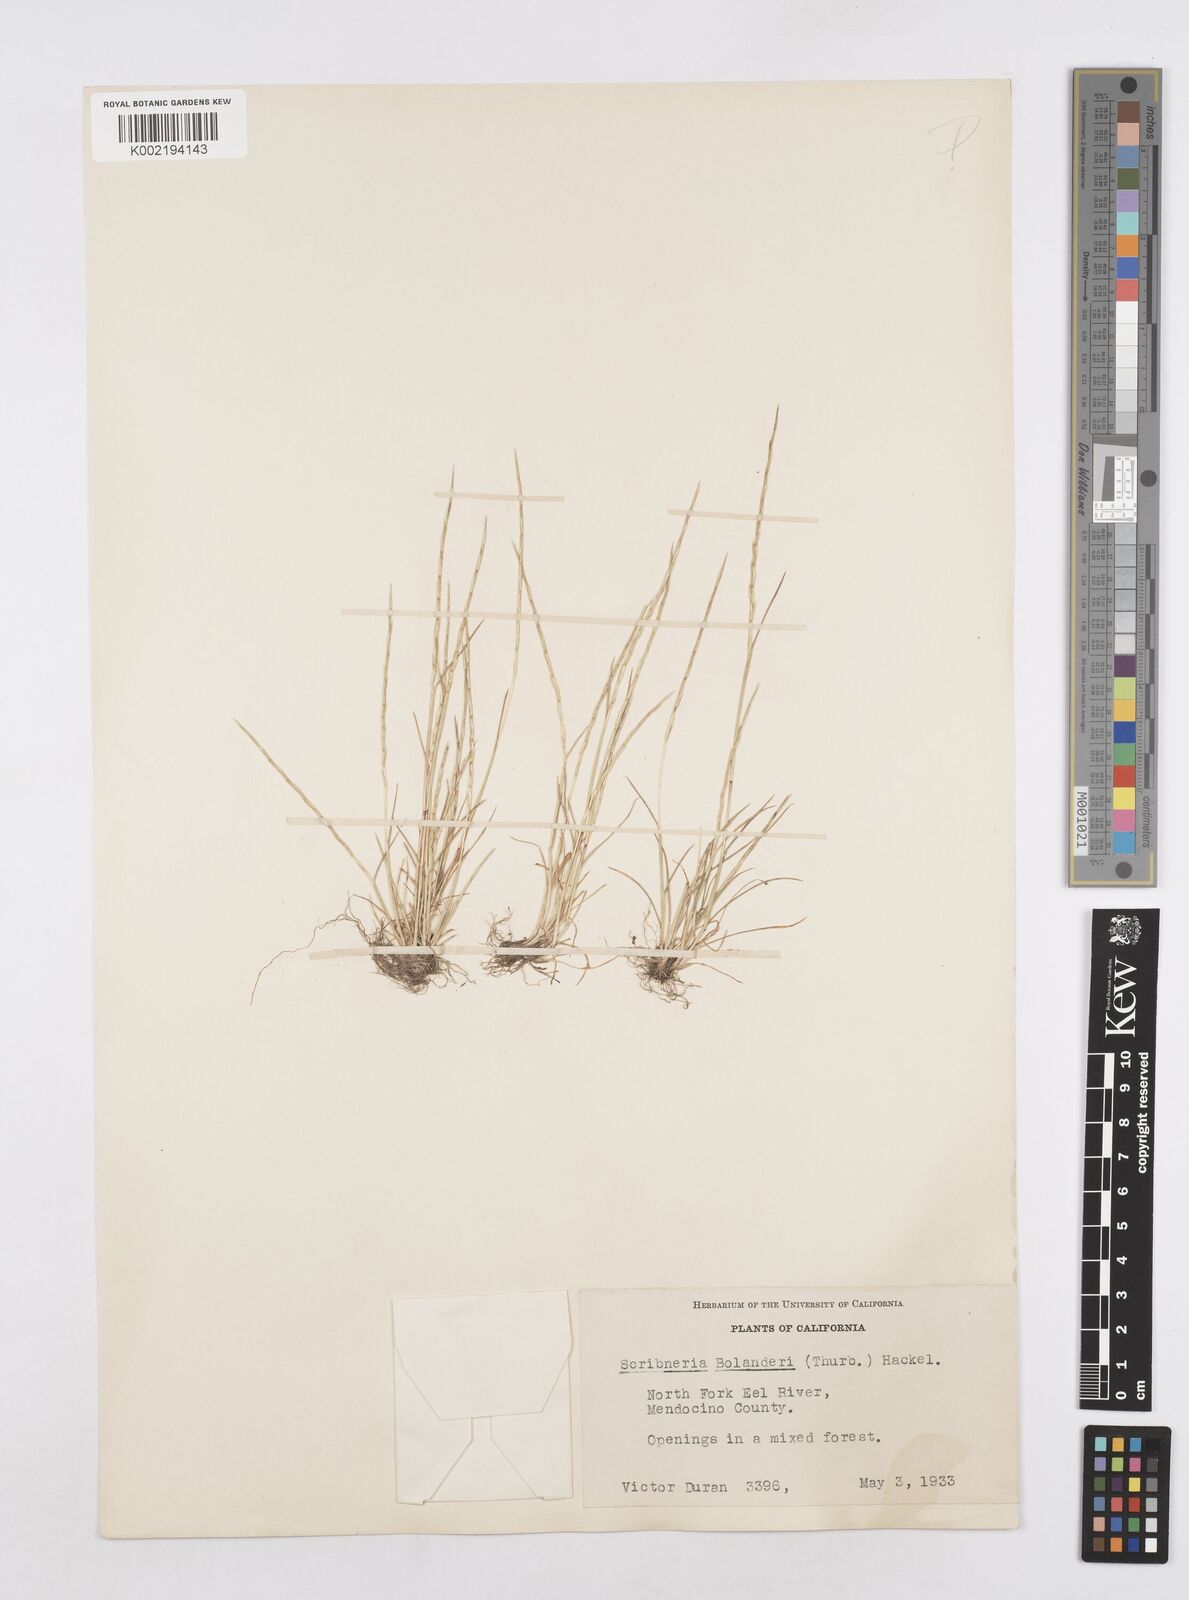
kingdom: Plantae
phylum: Tracheophyta
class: Liliopsida
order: Poales
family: Poaceae
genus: Deschampsia
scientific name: Deschampsia bolanderi
